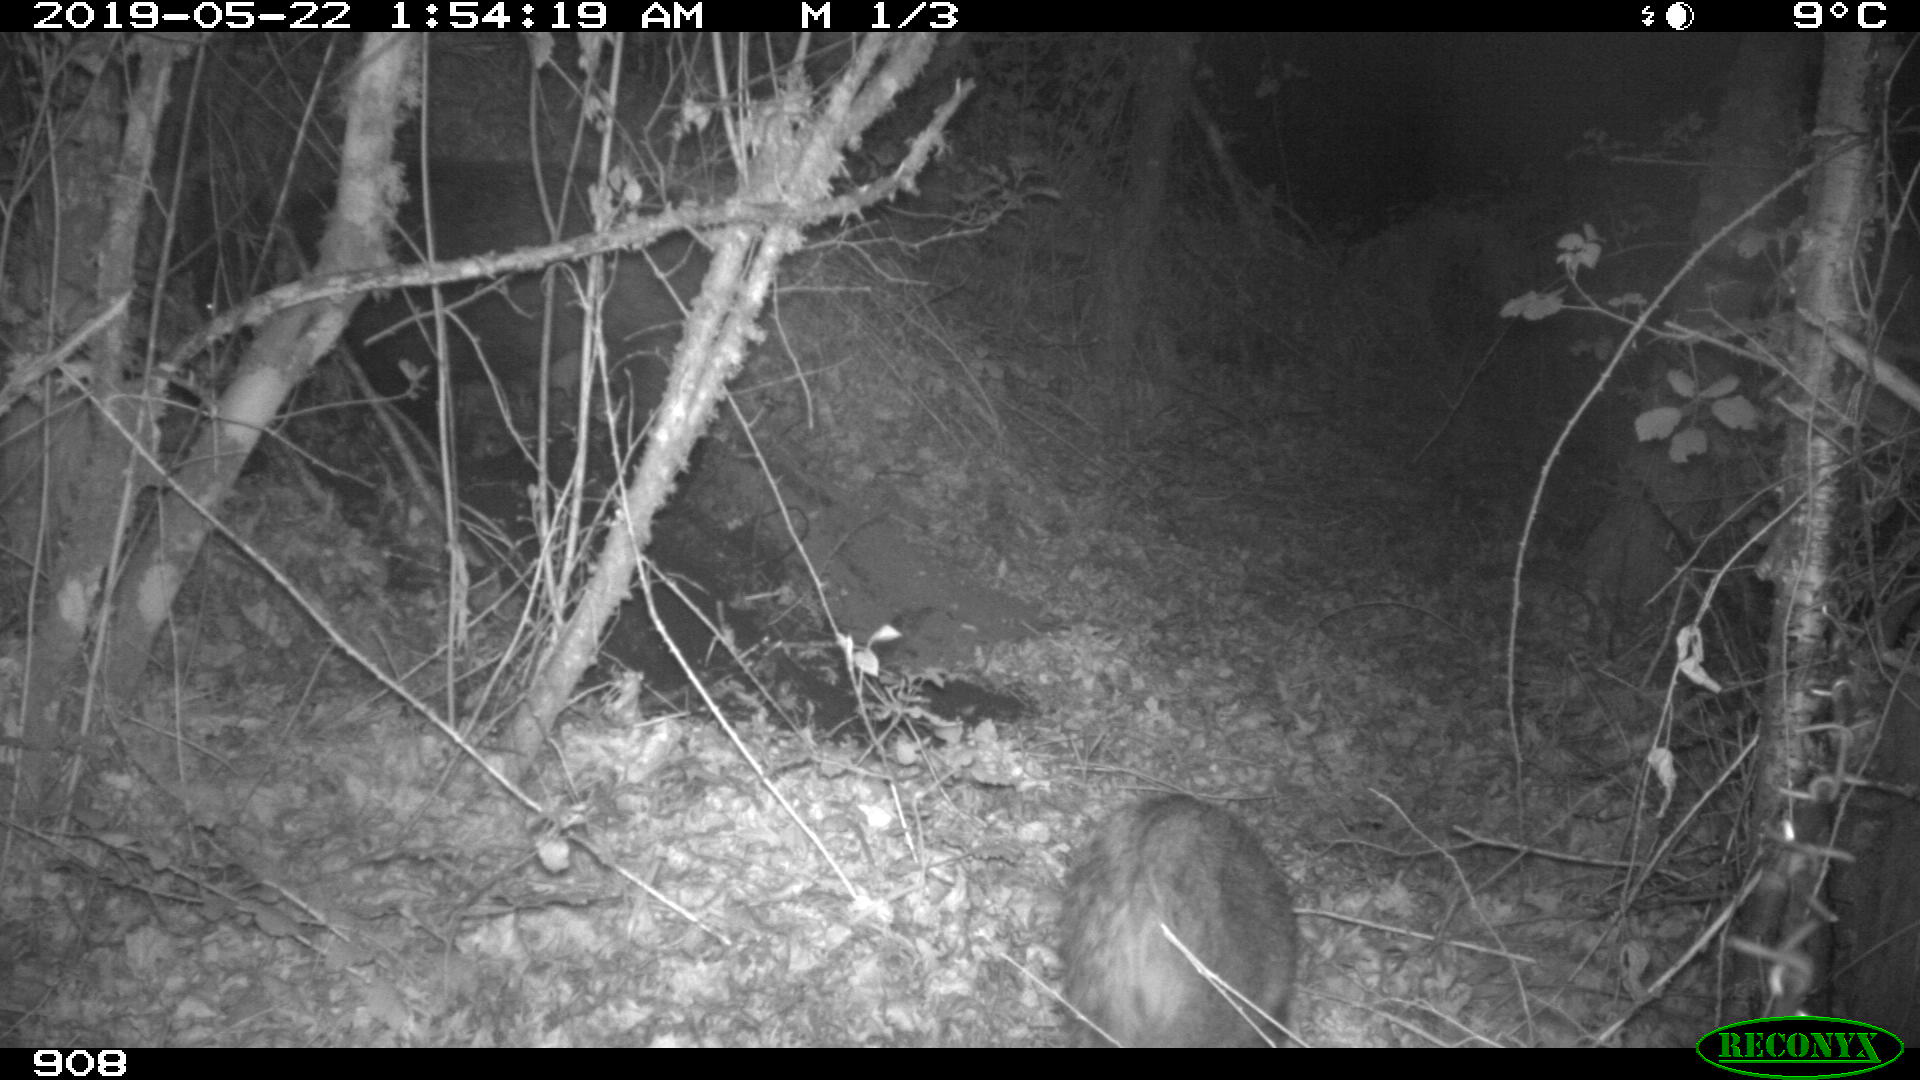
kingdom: Animalia
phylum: Chordata
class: Mammalia
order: Artiodactyla
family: Suidae
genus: Sus
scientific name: Sus scrofa
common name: Wild boar
